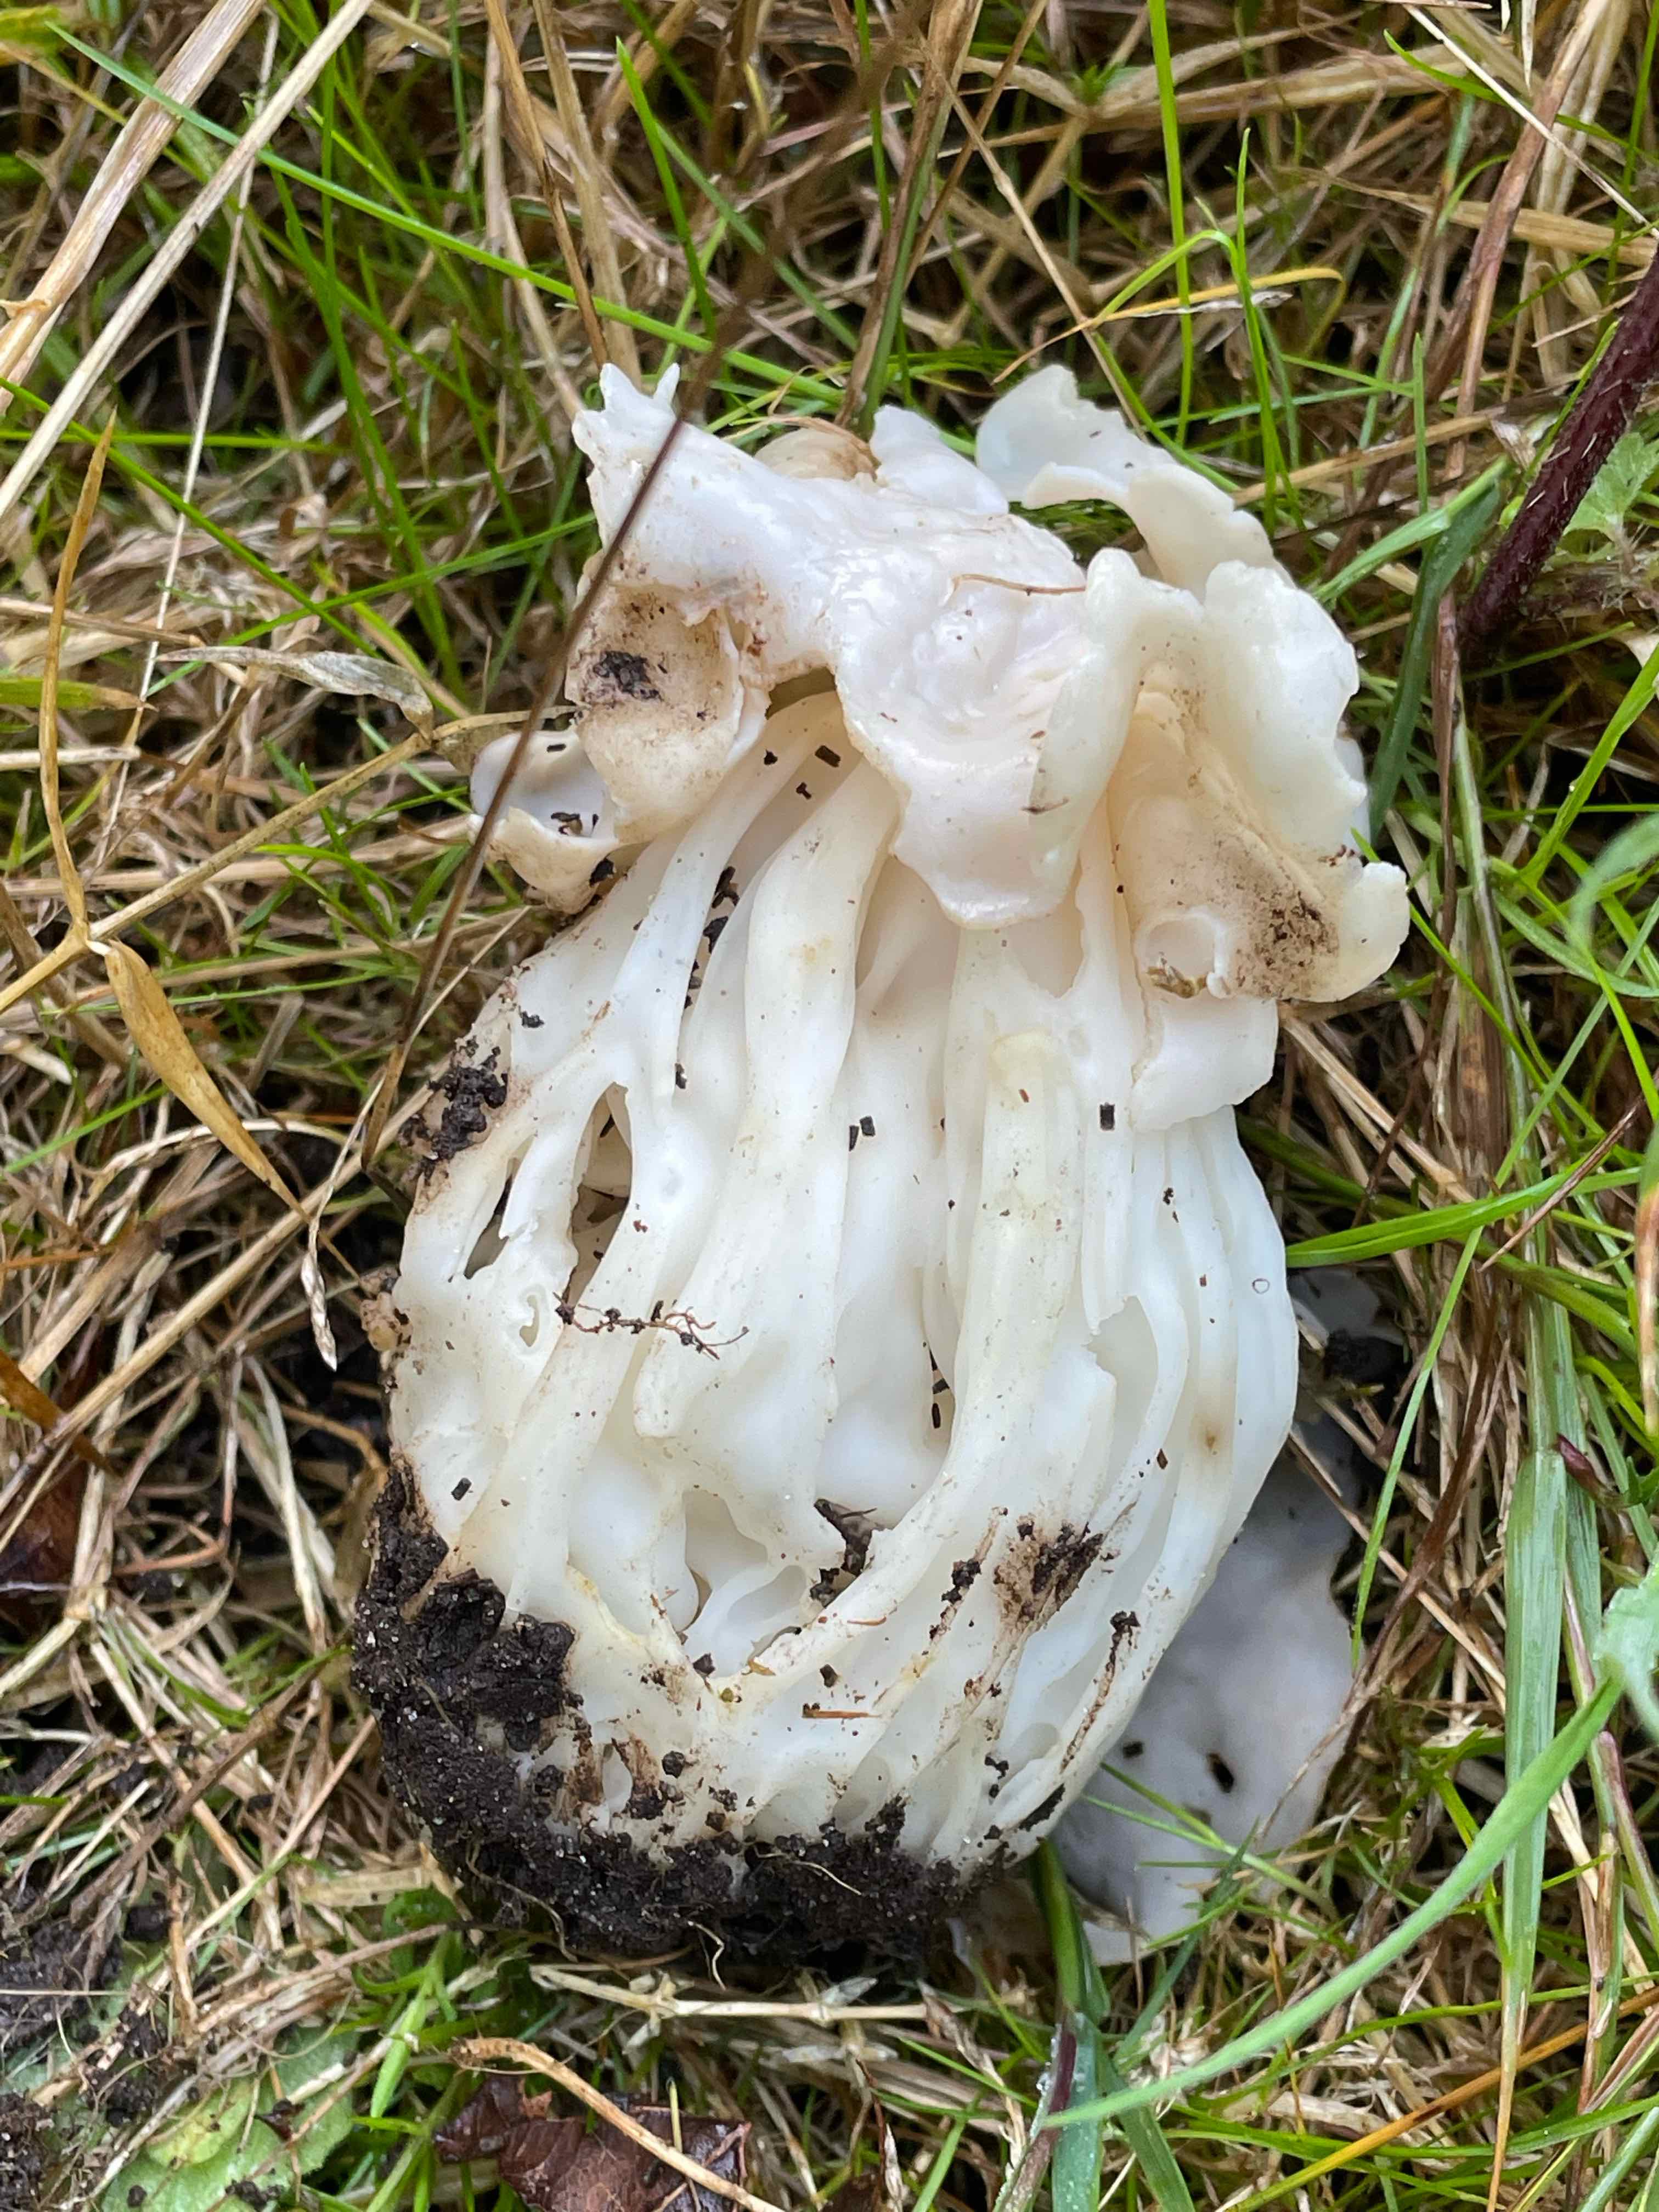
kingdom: Fungi
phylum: Ascomycota
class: Pezizomycetes
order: Pezizales
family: Helvellaceae
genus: Helvella
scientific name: Helvella crispa
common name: kruset foldhat
